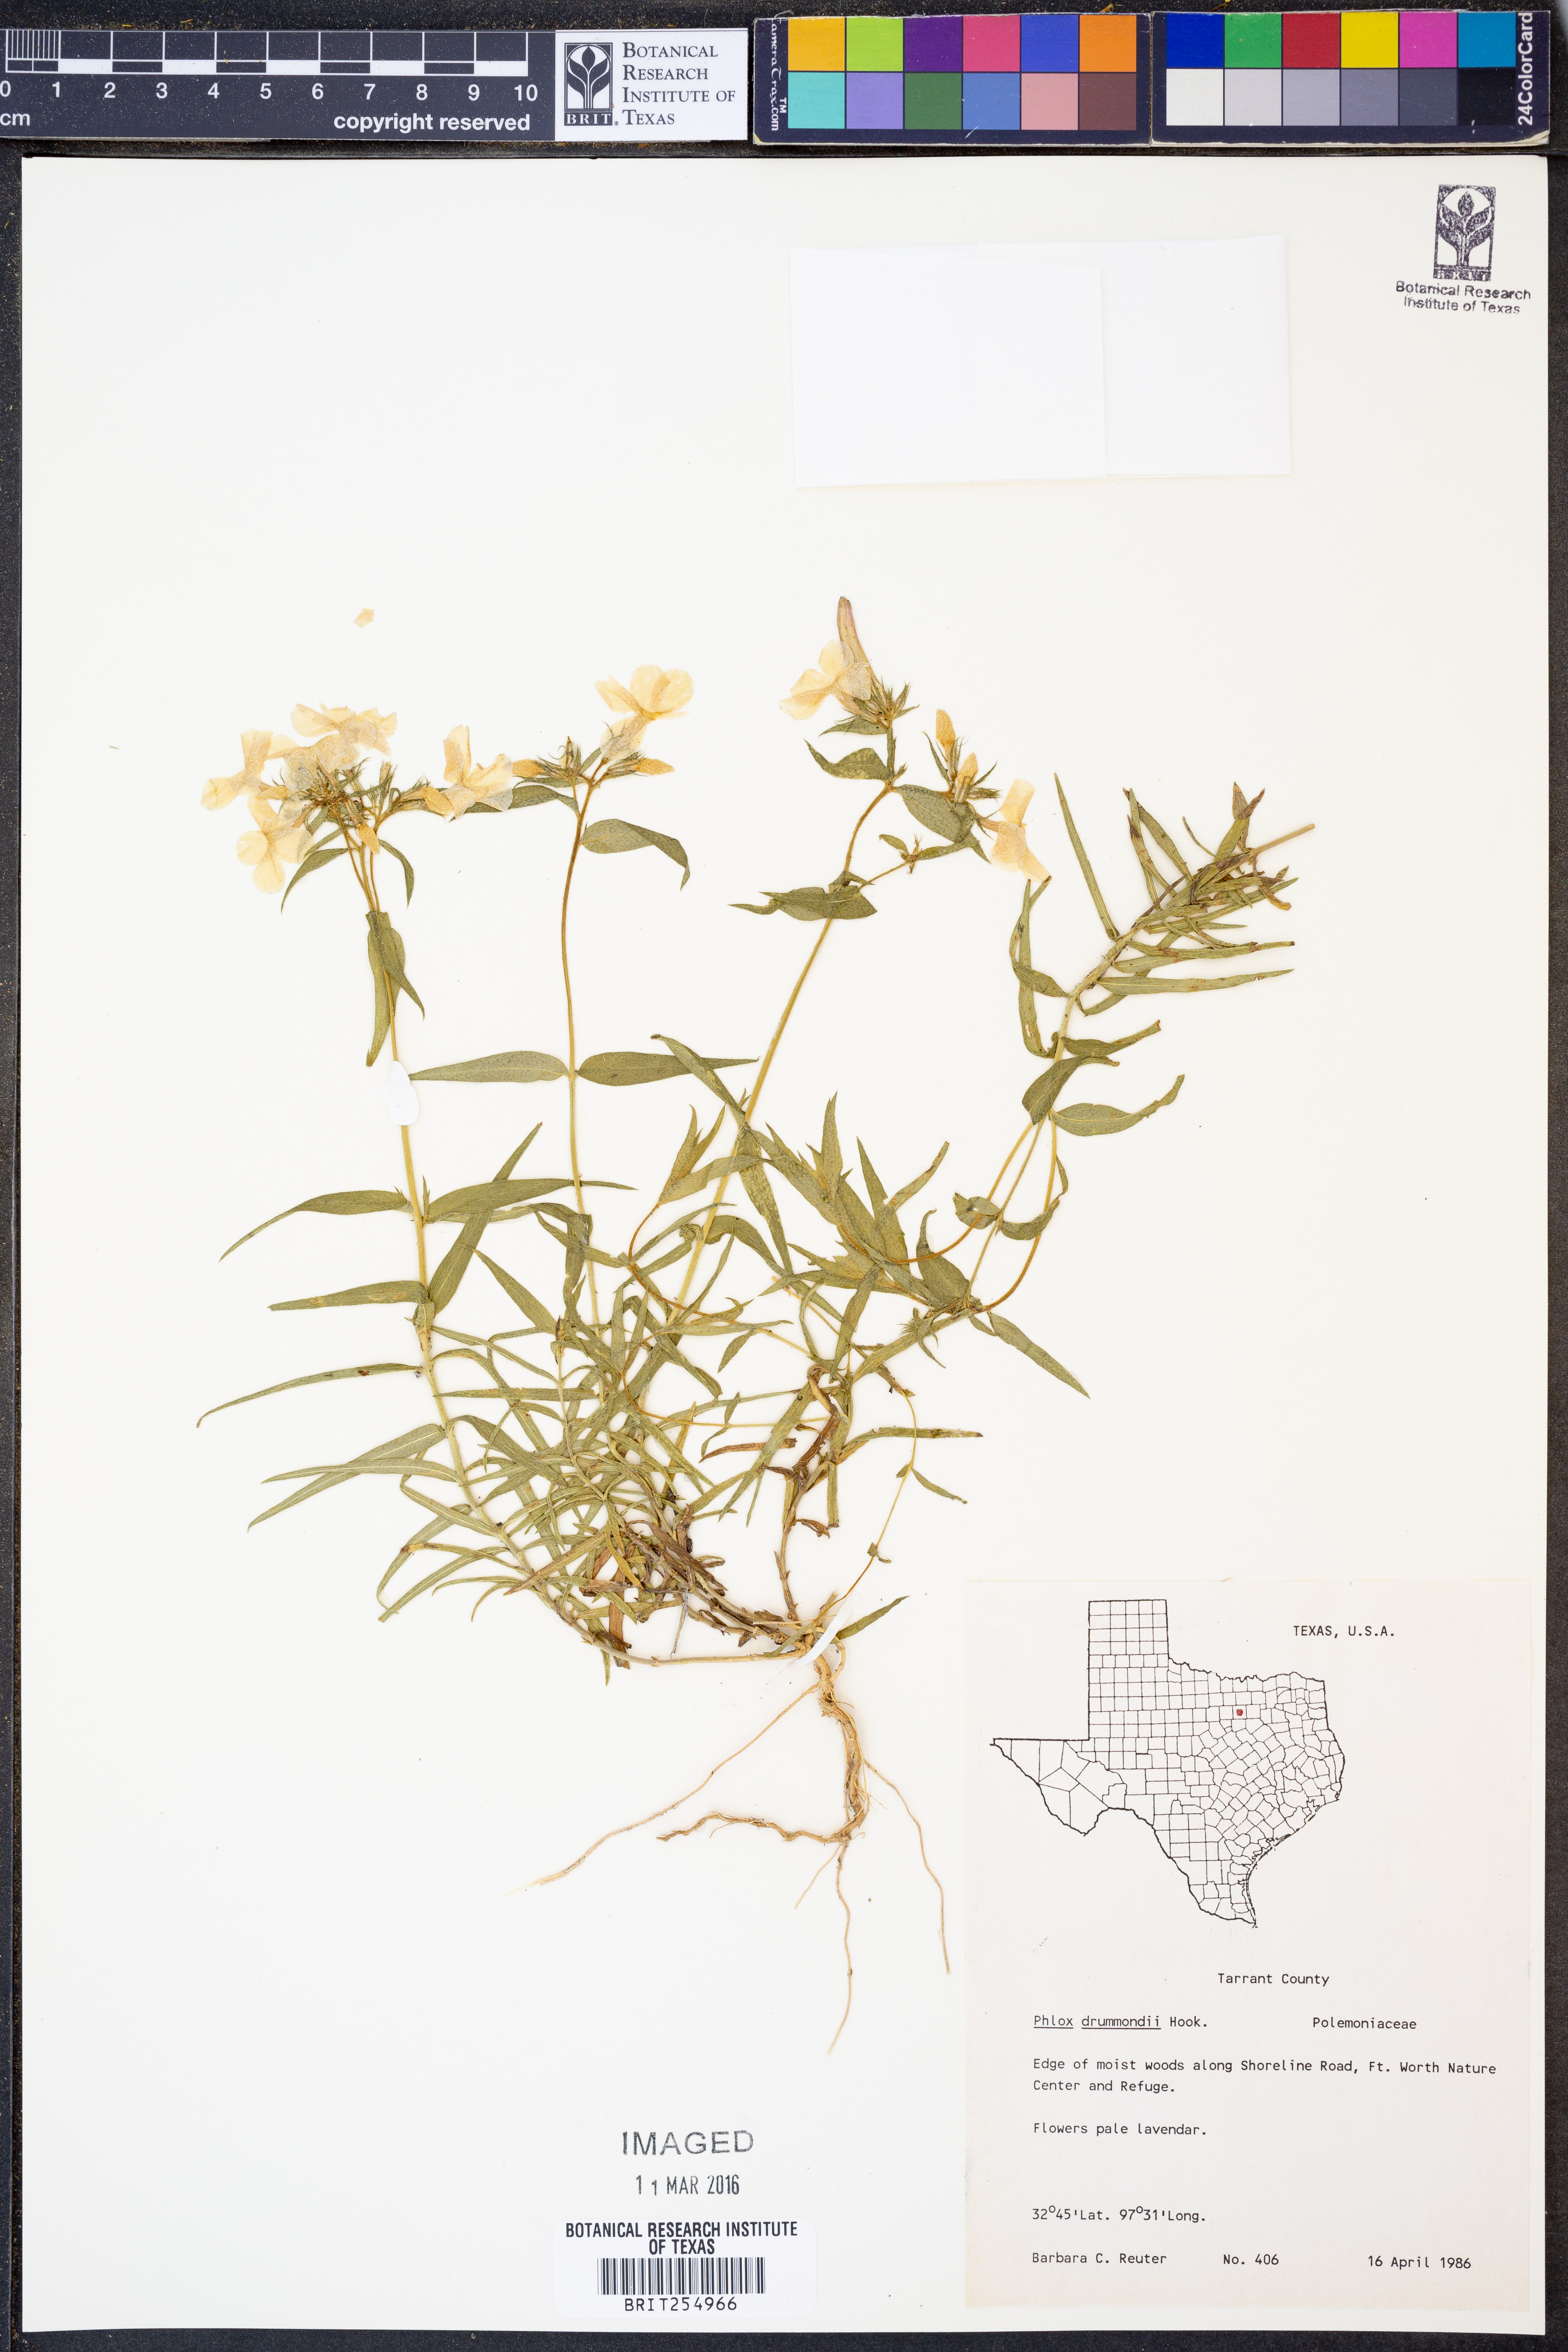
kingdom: Plantae
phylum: Tracheophyta
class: Magnoliopsida
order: Ericales
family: Polemoniaceae
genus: Phlox
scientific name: Phlox drummondii
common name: Drummond's phlox
